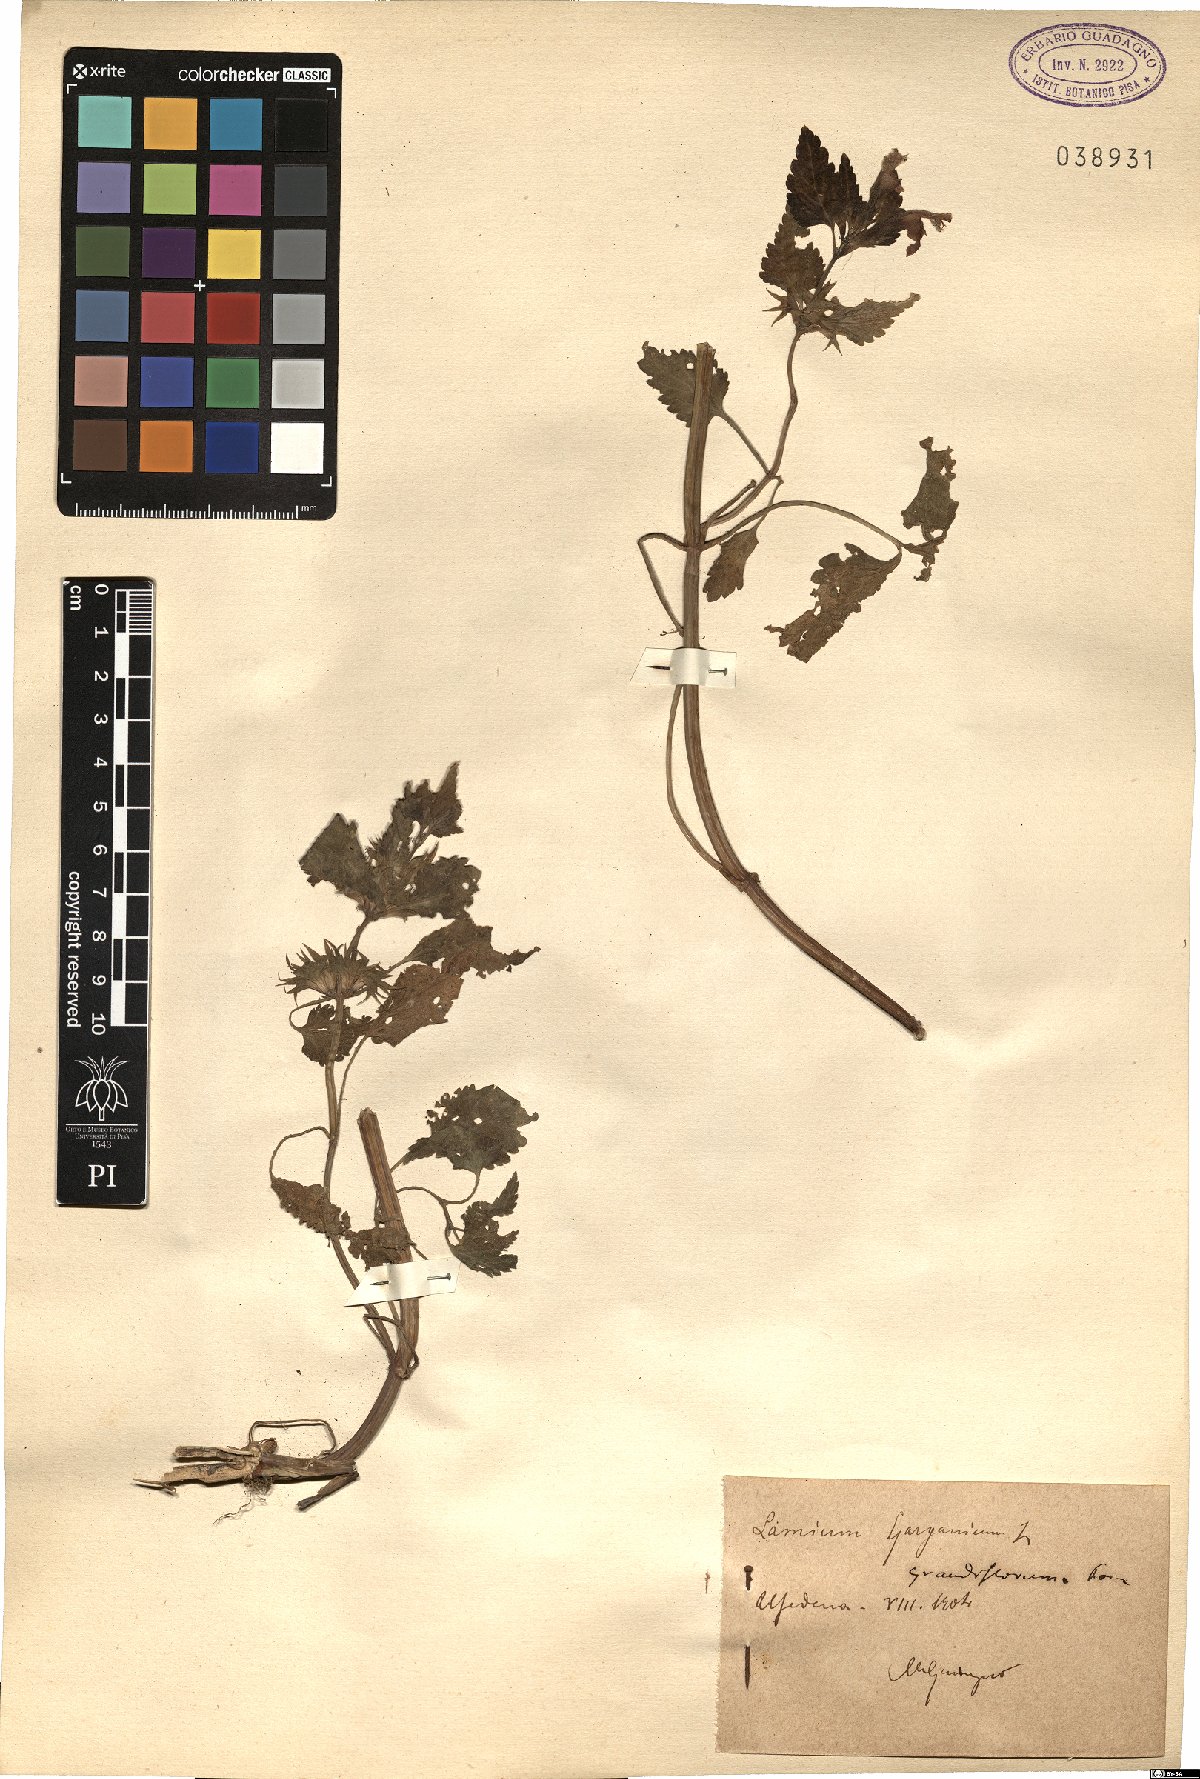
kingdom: Plantae
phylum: Tracheophyta
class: Magnoliopsida
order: Lamiales
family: Lamiaceae
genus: Lamium
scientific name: Lamium garganicum
